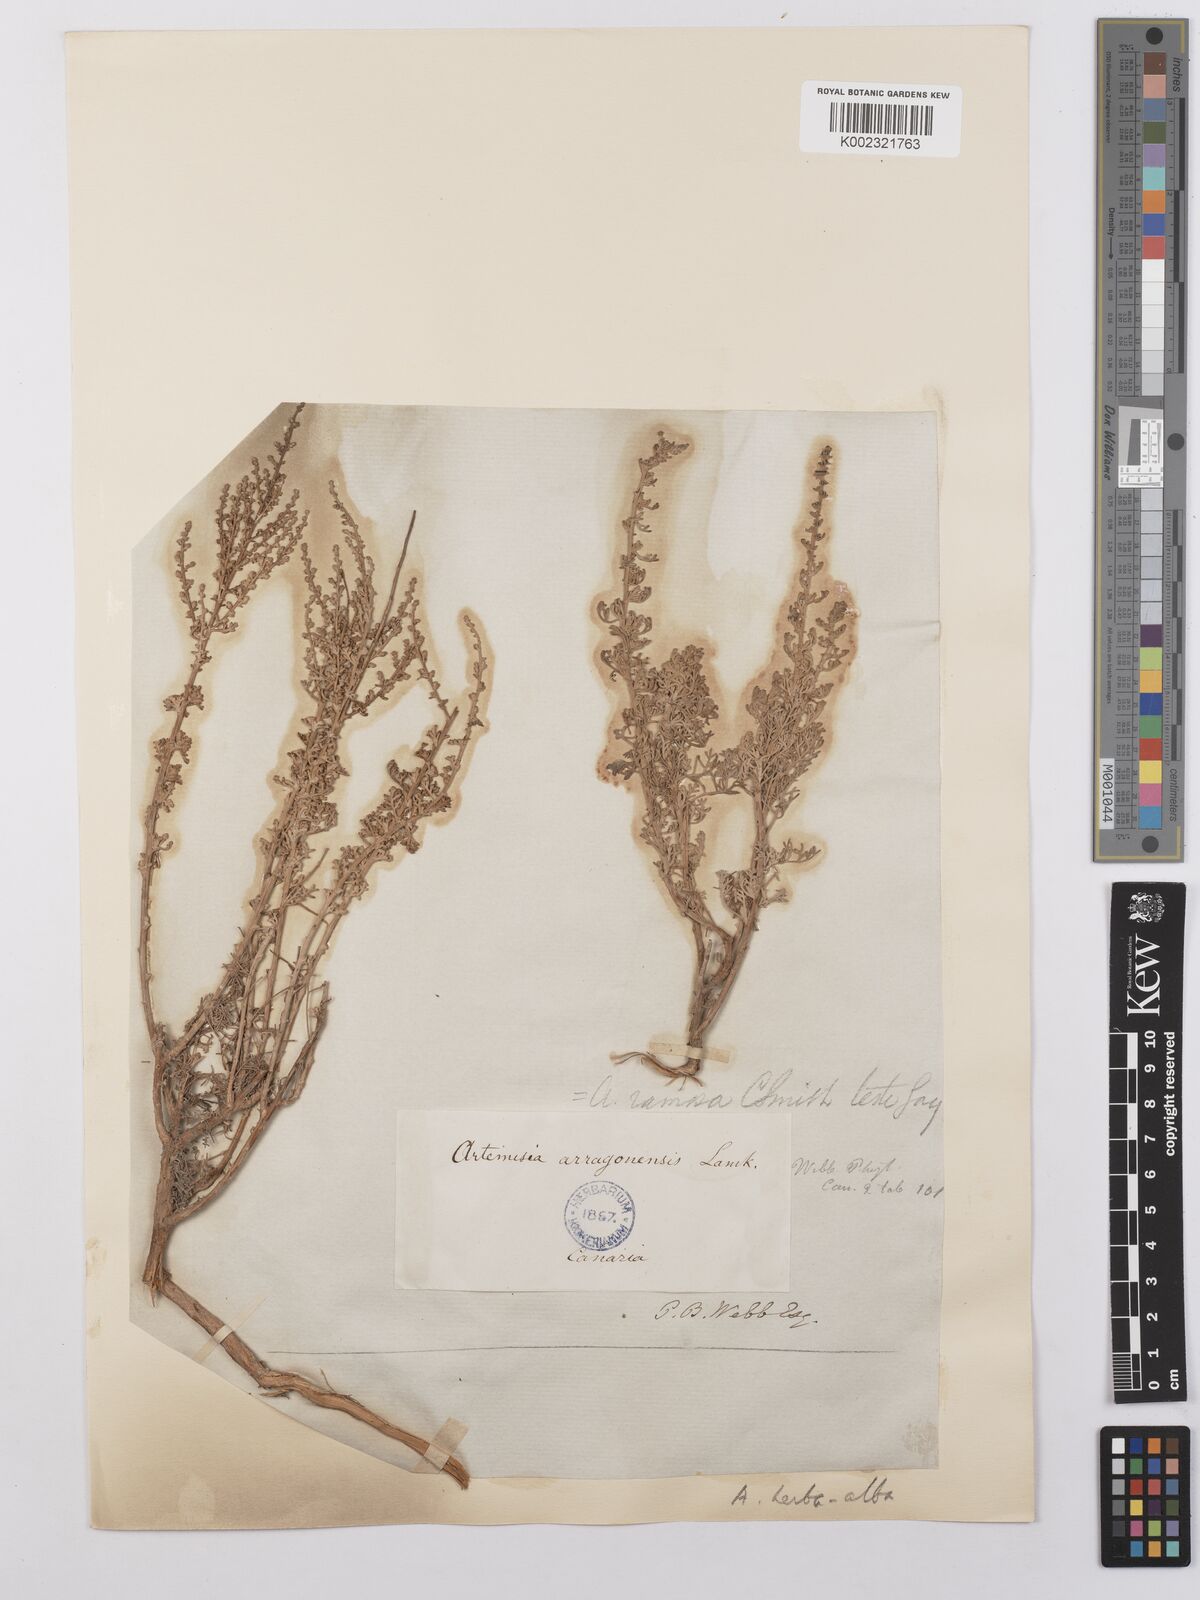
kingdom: Plantae
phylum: Tracheophyta
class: Magnoliopsida
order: Asterales
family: Asteraceae
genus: Artemisia
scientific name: Artemisia herba-alba
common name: White wormwood
